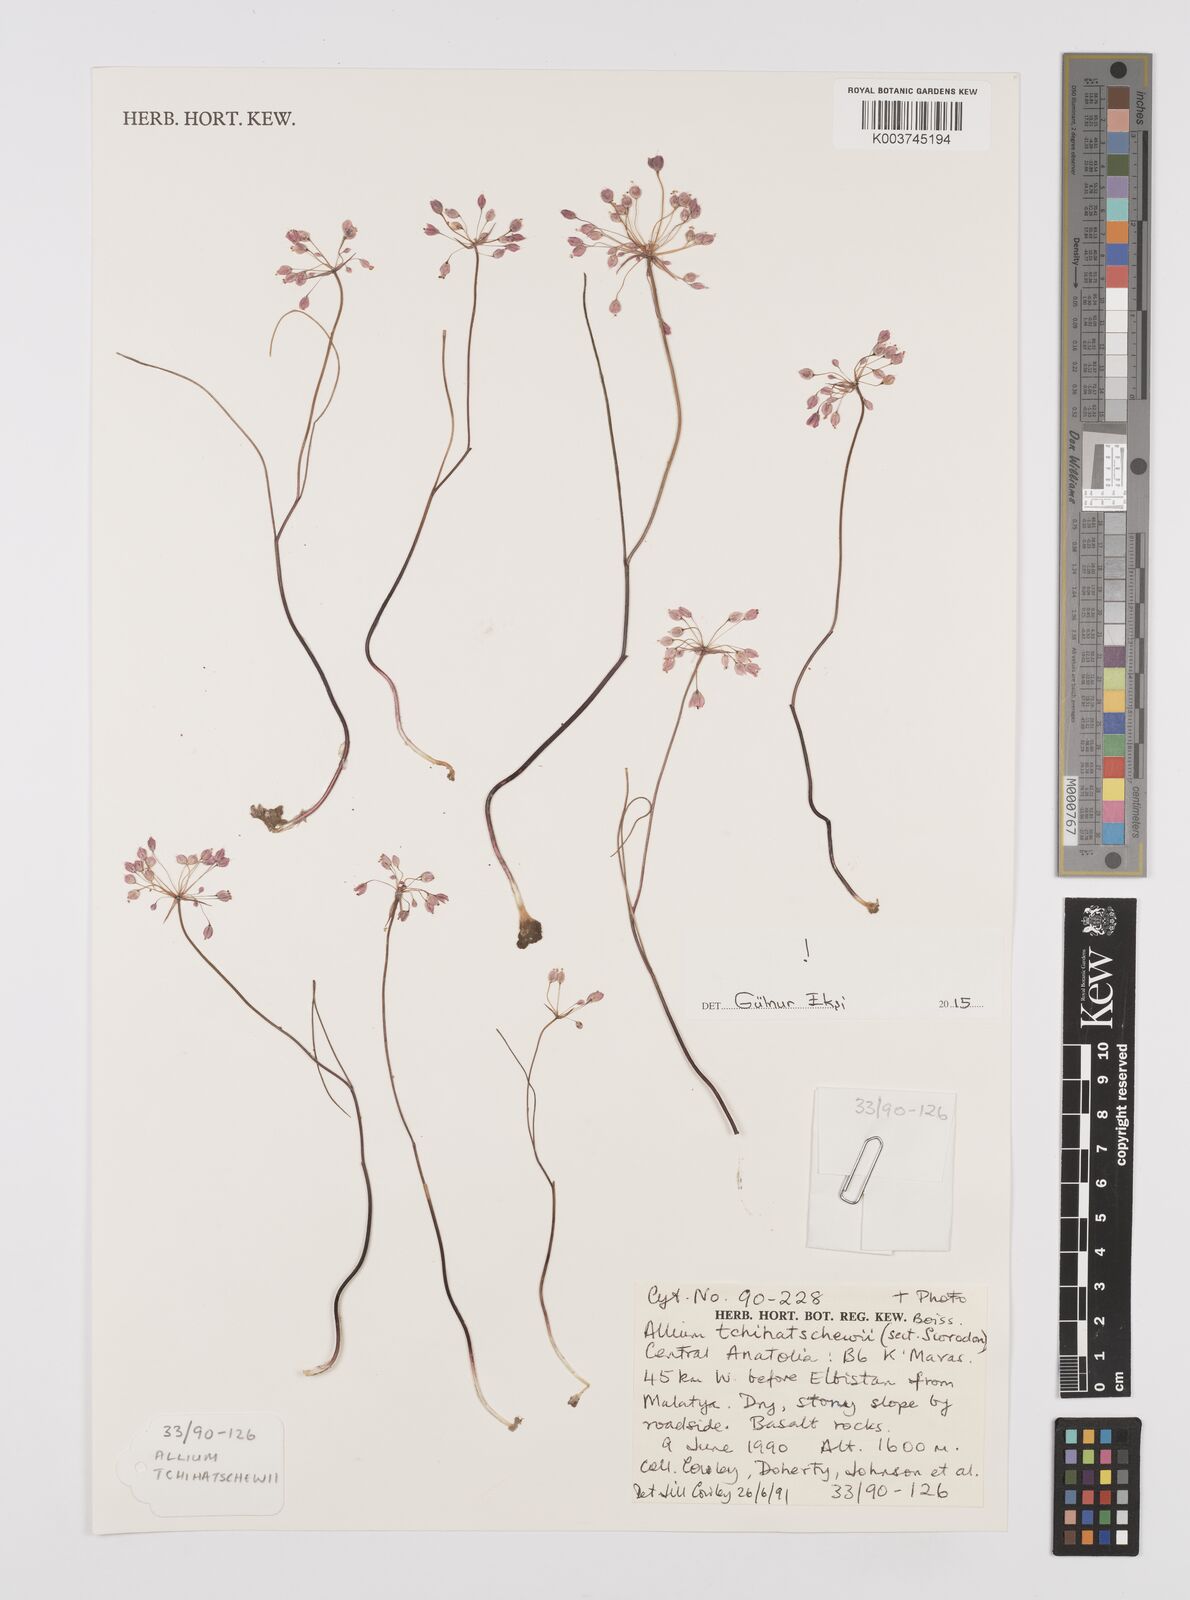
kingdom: Plantae
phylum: Tracheophyta
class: Liliopsida
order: Asparagales
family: Amaryllidaceae
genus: Allium
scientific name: Allium tchihatschewii
